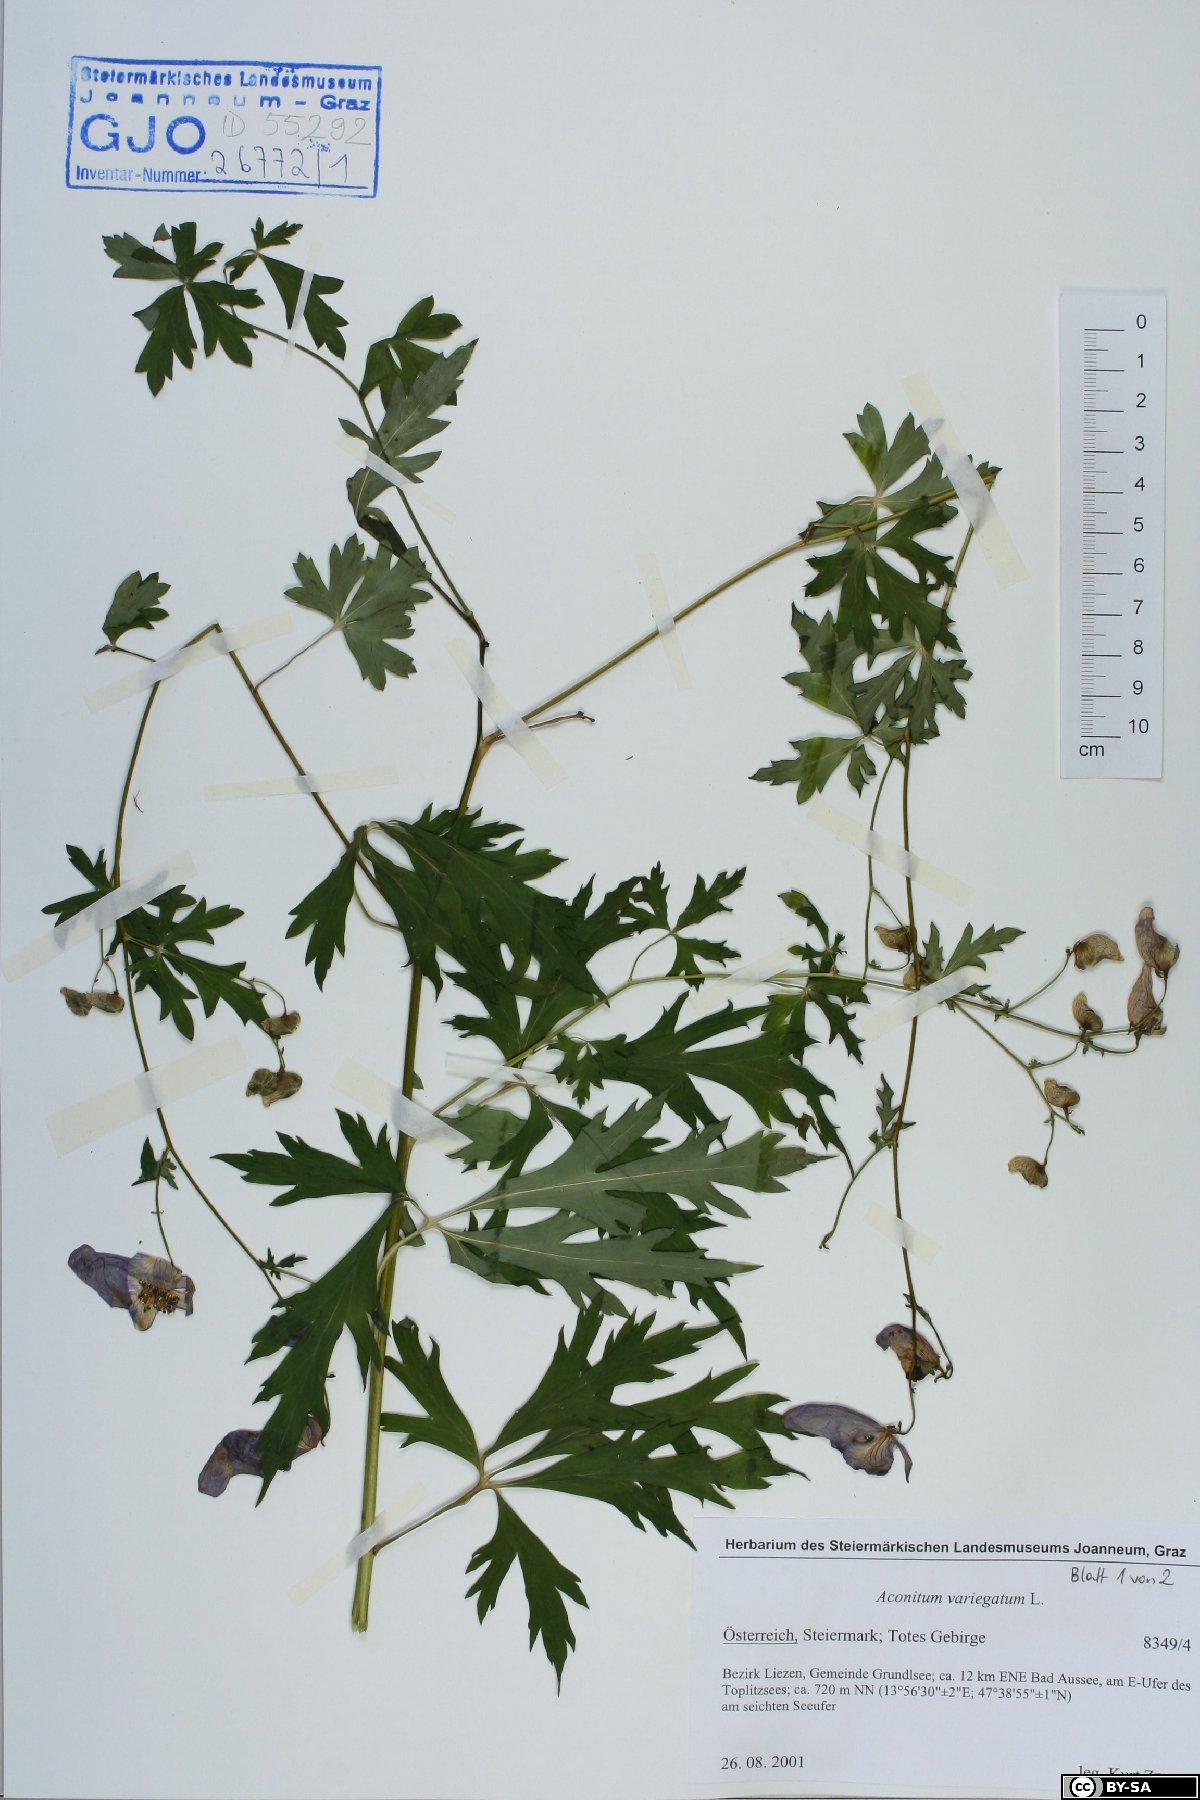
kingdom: Plantae
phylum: Tracheophyta
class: Magnoliopsida
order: Ranunculales
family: Ranunculaceae
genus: Aconitum
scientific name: Aconitum variegatum
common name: Manchurian monkshood
